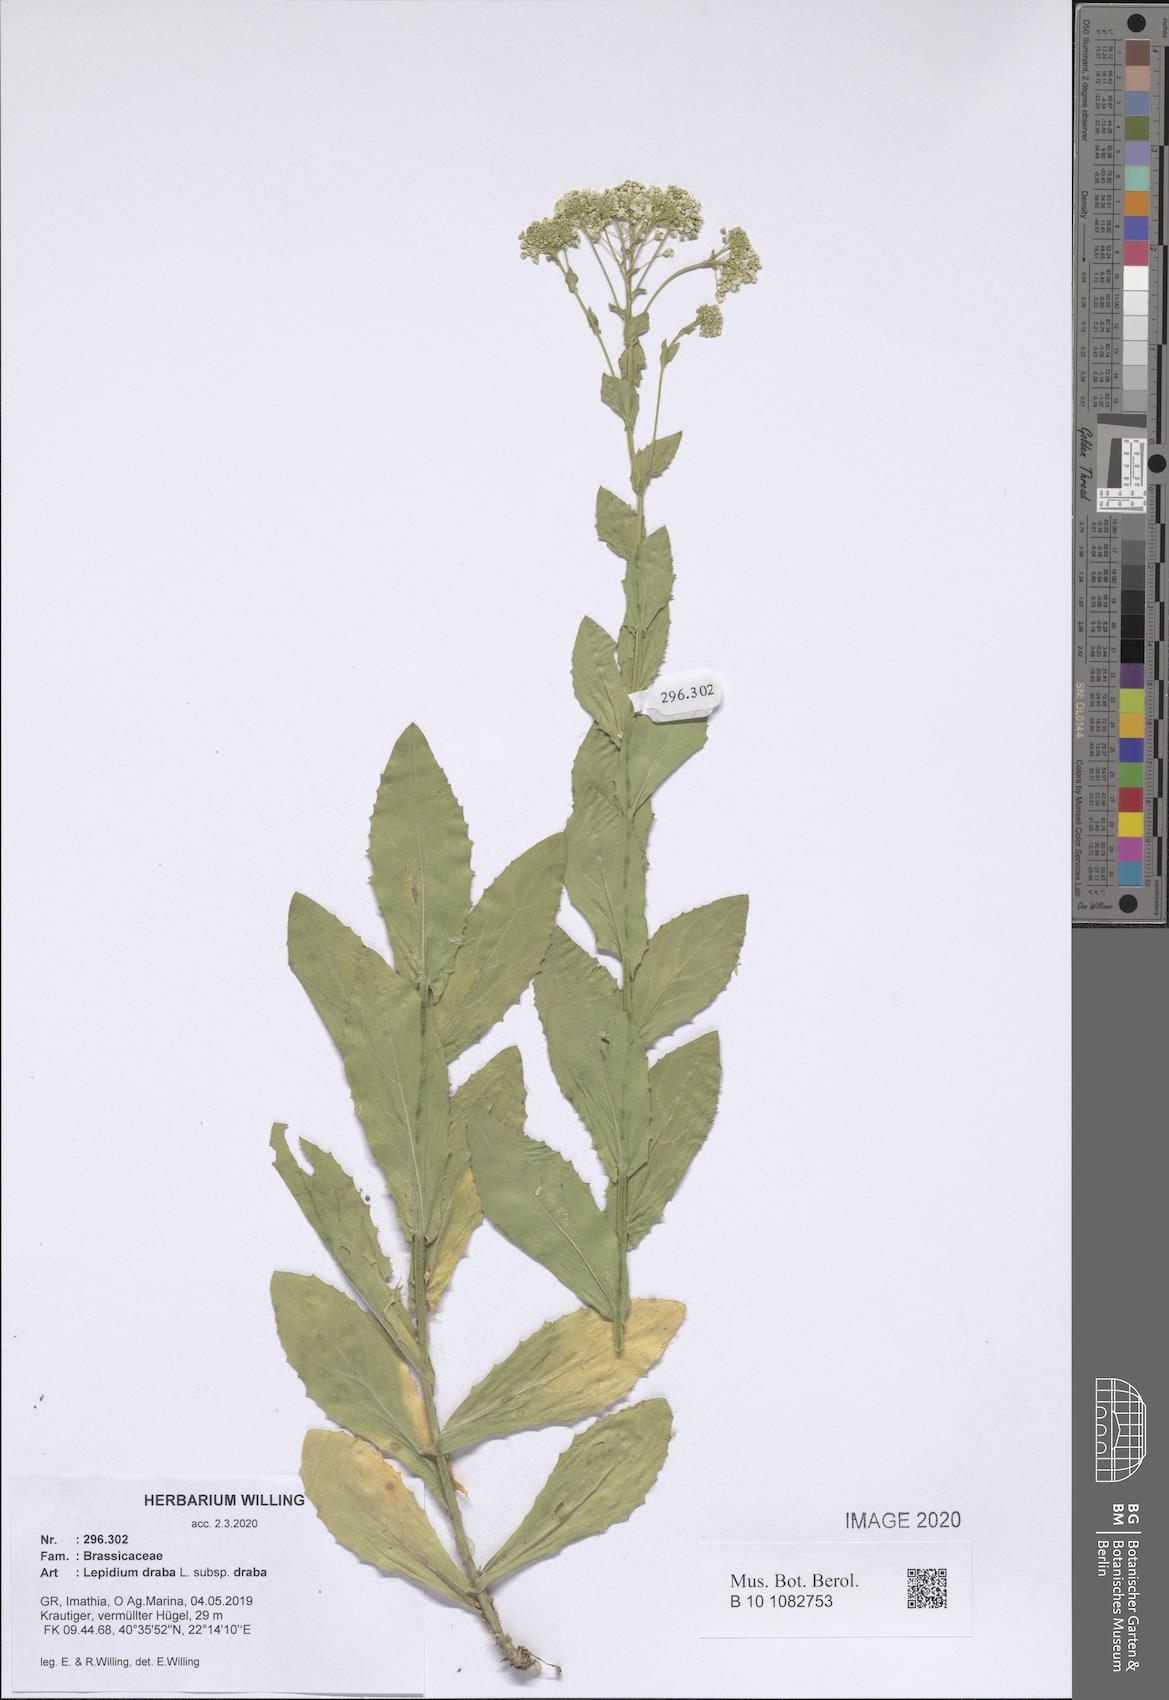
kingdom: Plantae
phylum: Tracheophyta
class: Magnoliopsida
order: Brassicales
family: Brassicaceae
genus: Lepidium
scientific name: Lepidium draba
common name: Hoary cress
